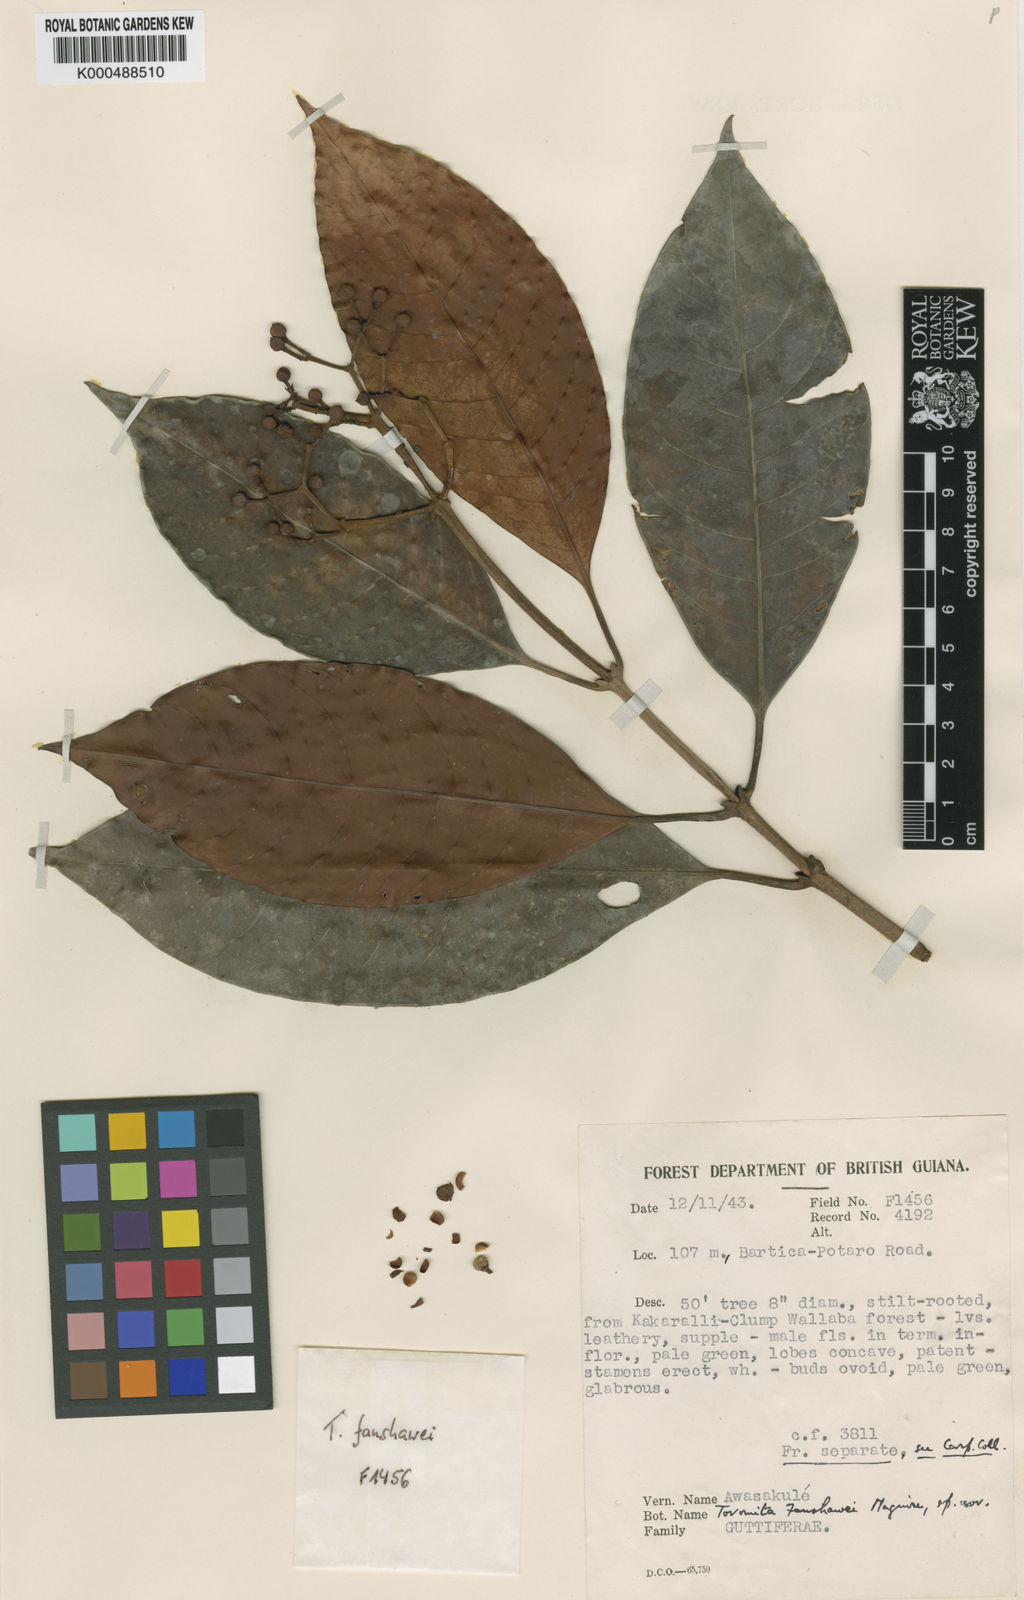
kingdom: Plantae
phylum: Tracheophyta
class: Magnoliopsida
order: Malpighiales
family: Clusiaceae
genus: Tovomita
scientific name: Tovomita fanshawei
